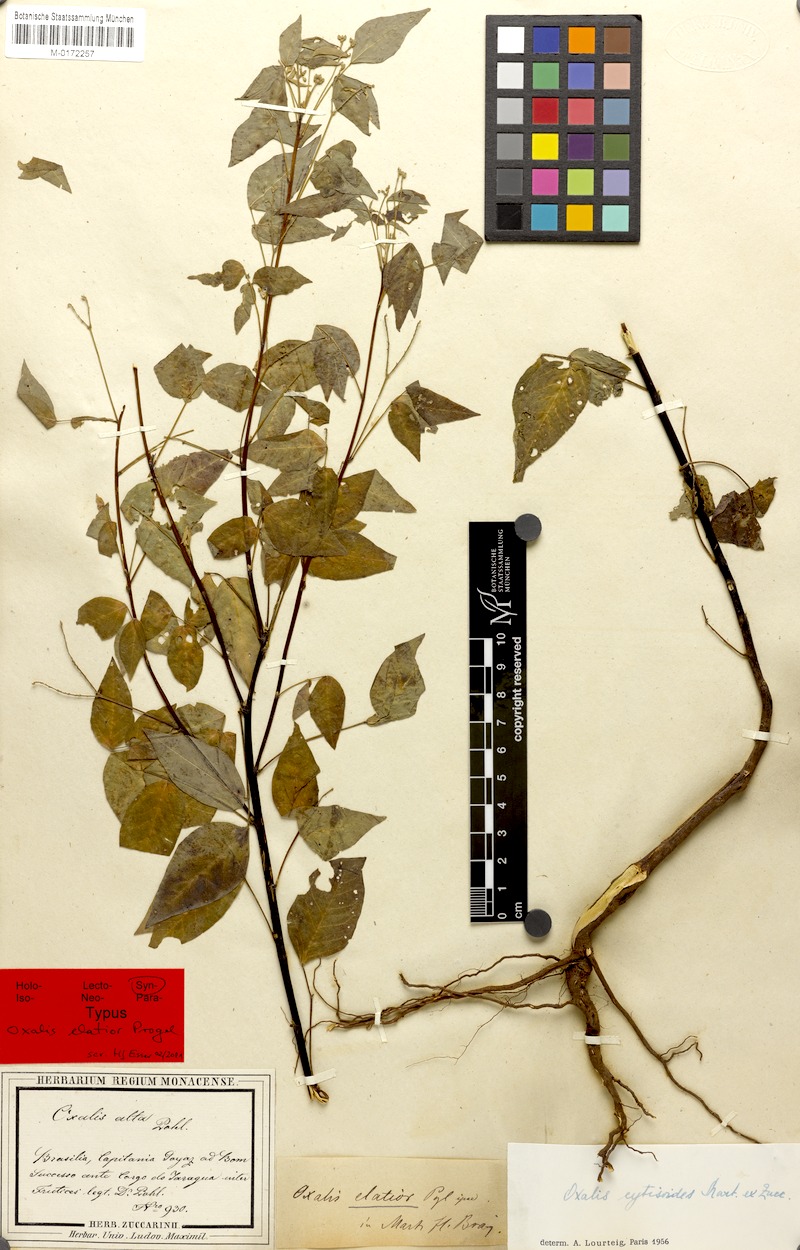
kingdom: Plantae
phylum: Tracheophyta
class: Magnoliopsida
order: Oxalidales
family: Oxalidaceae
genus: Oxalis
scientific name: Oxalis cytisoides
